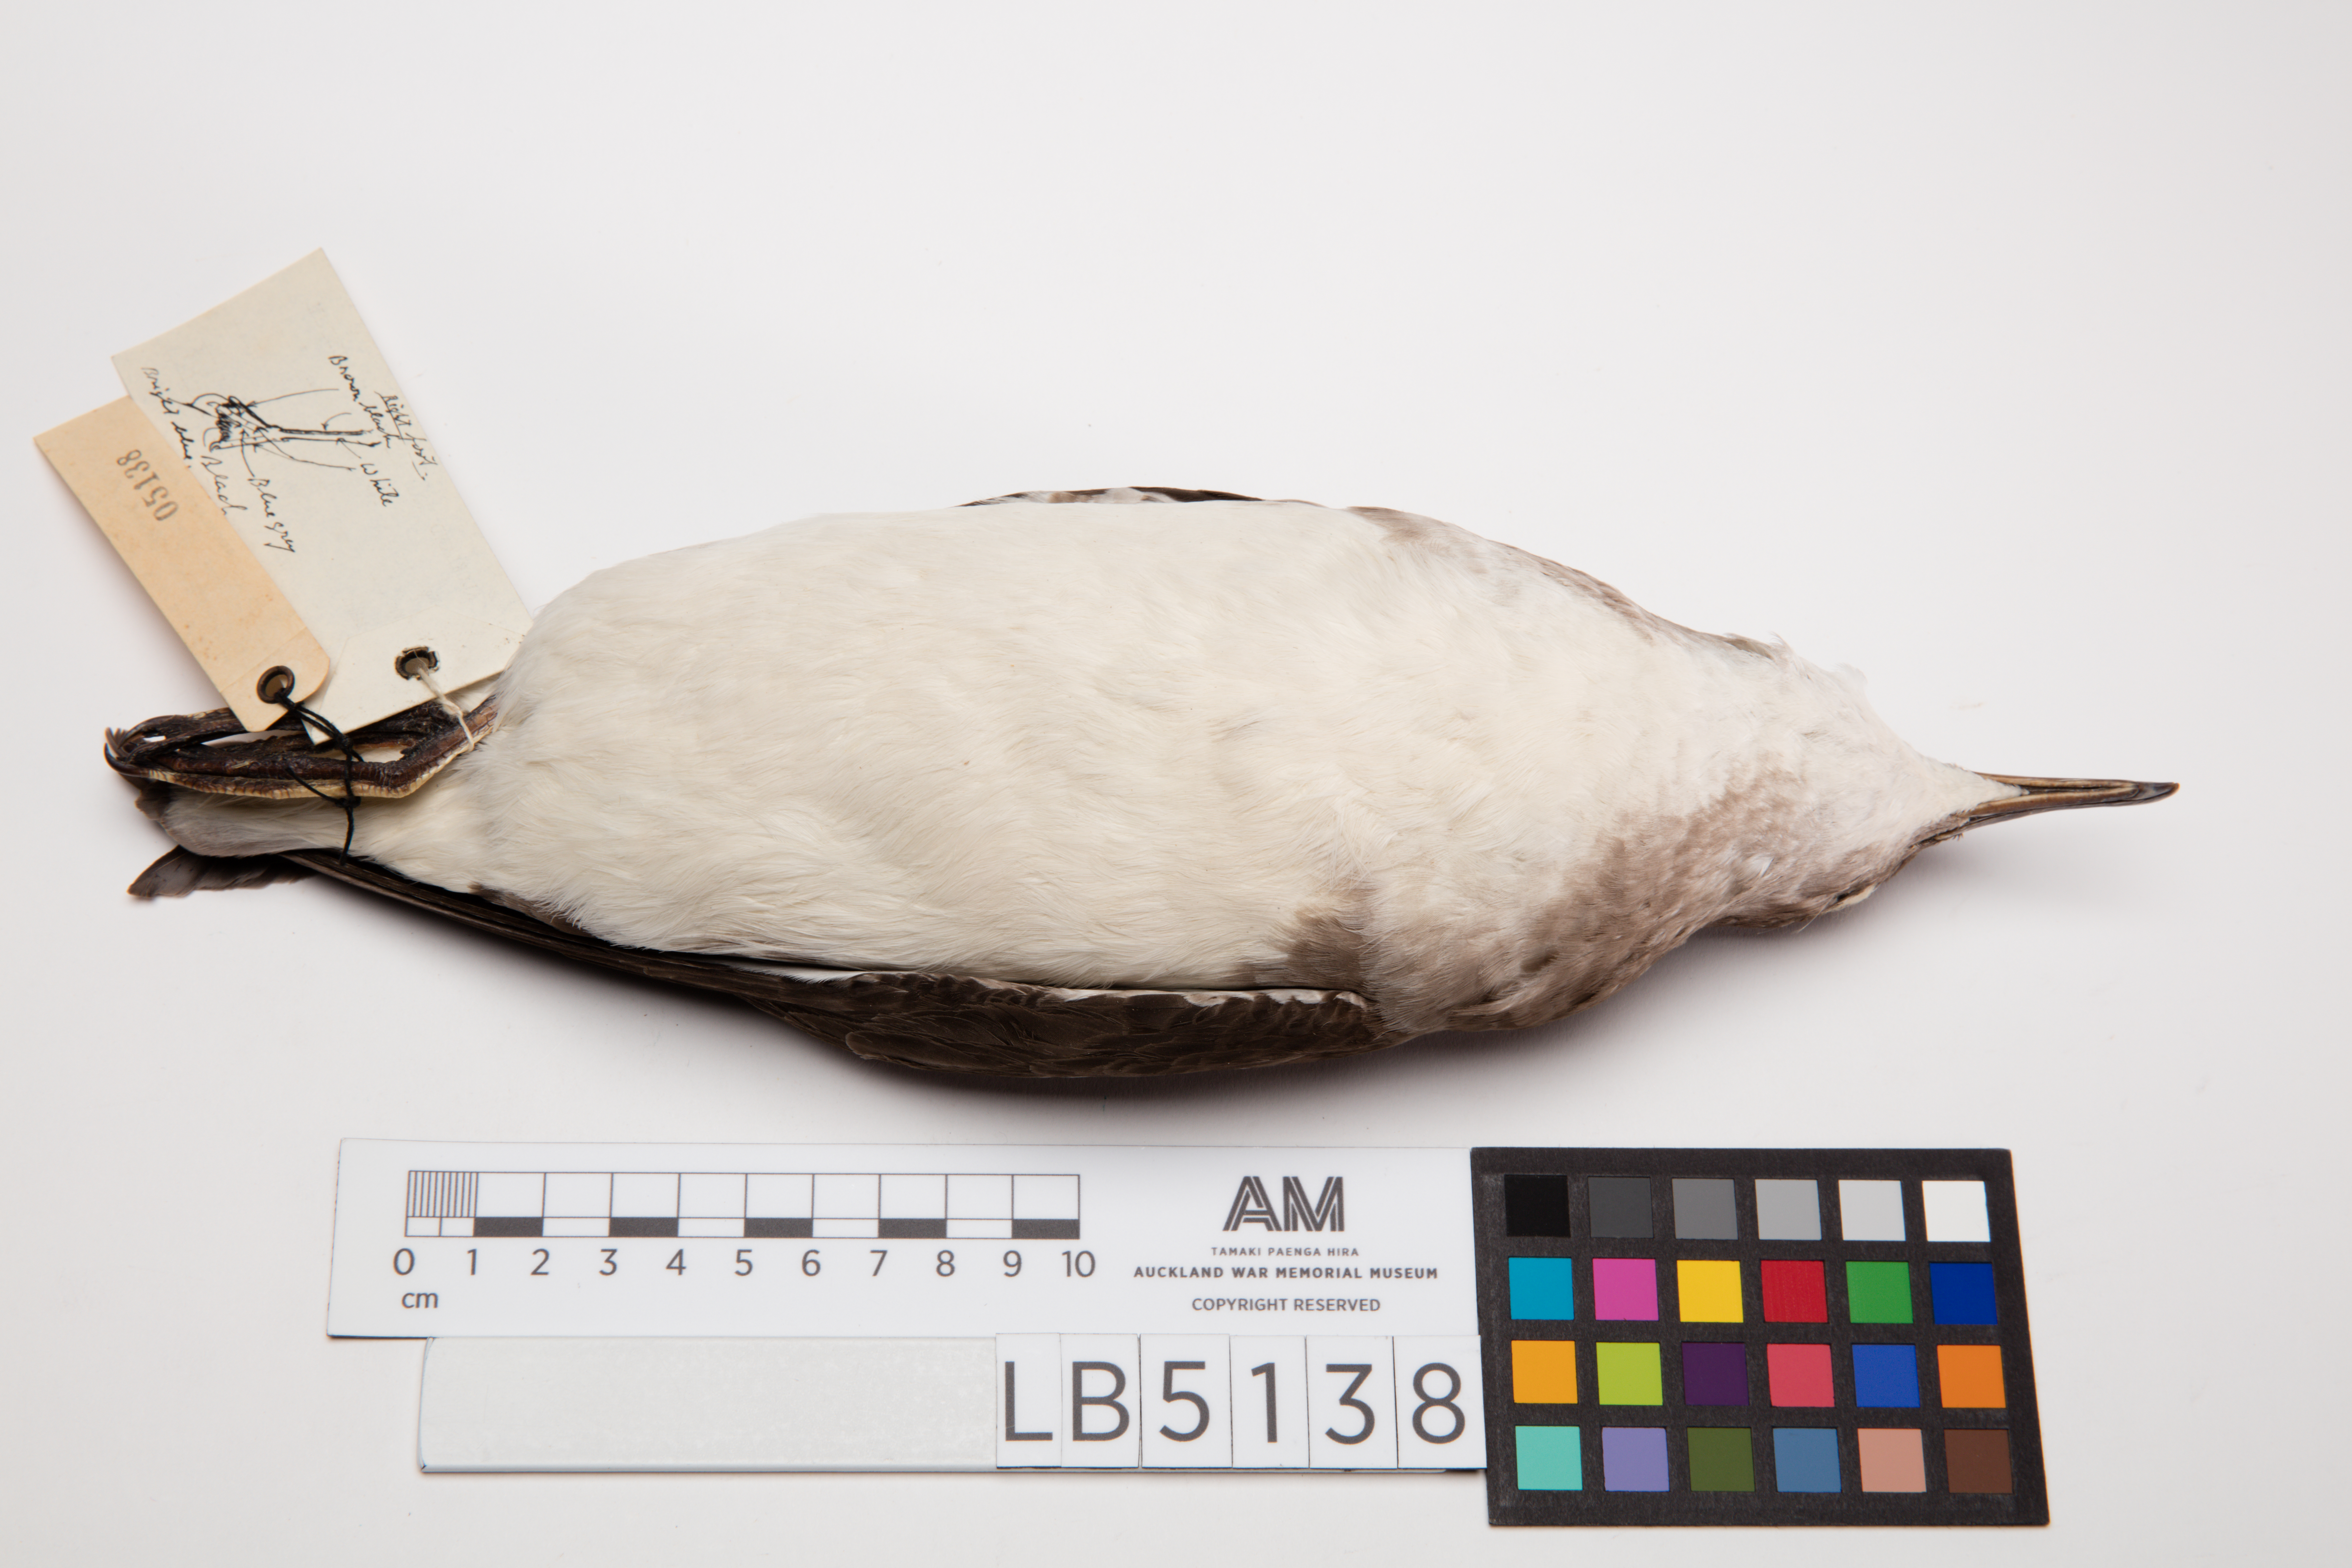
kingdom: Animalia
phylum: Chordata
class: Aves
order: Procellariiformes
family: Procellariidae
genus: Ardenna
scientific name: Ardenna
